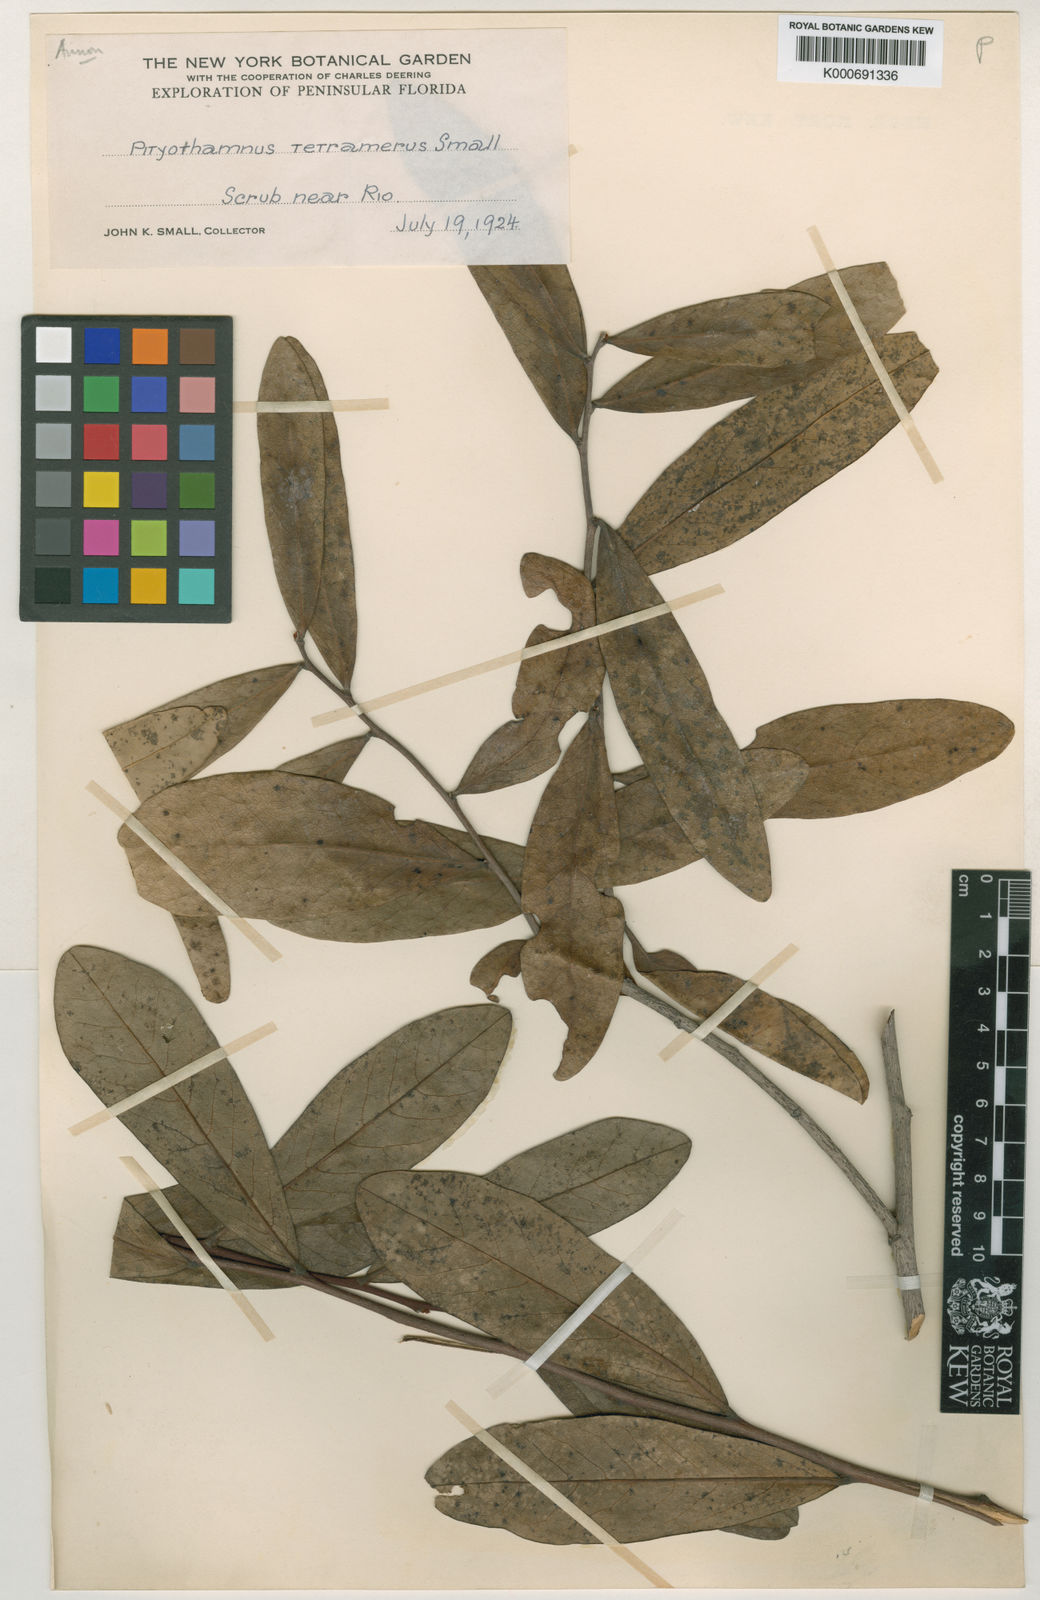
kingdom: Plantae
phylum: Tracheophyta
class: Magnoliopsida
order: Magnoliales
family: Annonaceae
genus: Asimina
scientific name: Asimina tetramera
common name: Four-petal pawpaw
